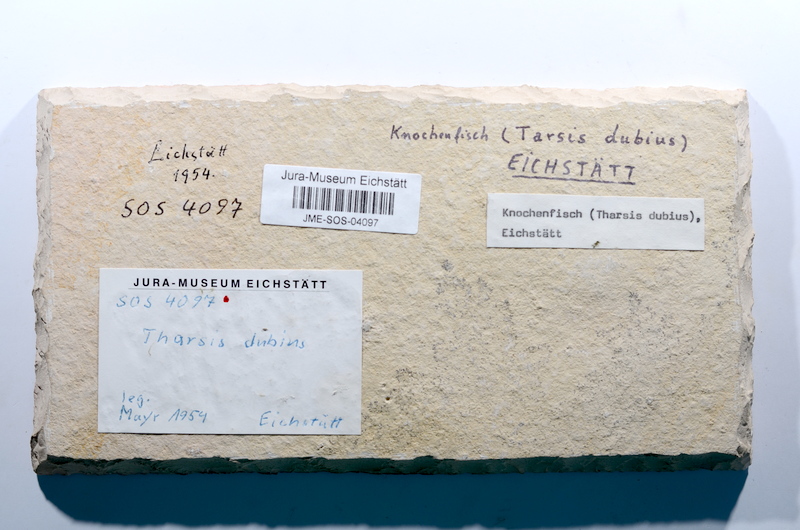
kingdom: Animalia
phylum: Chordata
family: Ascalaboidae
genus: Tharsis
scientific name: Tharsis dubius
